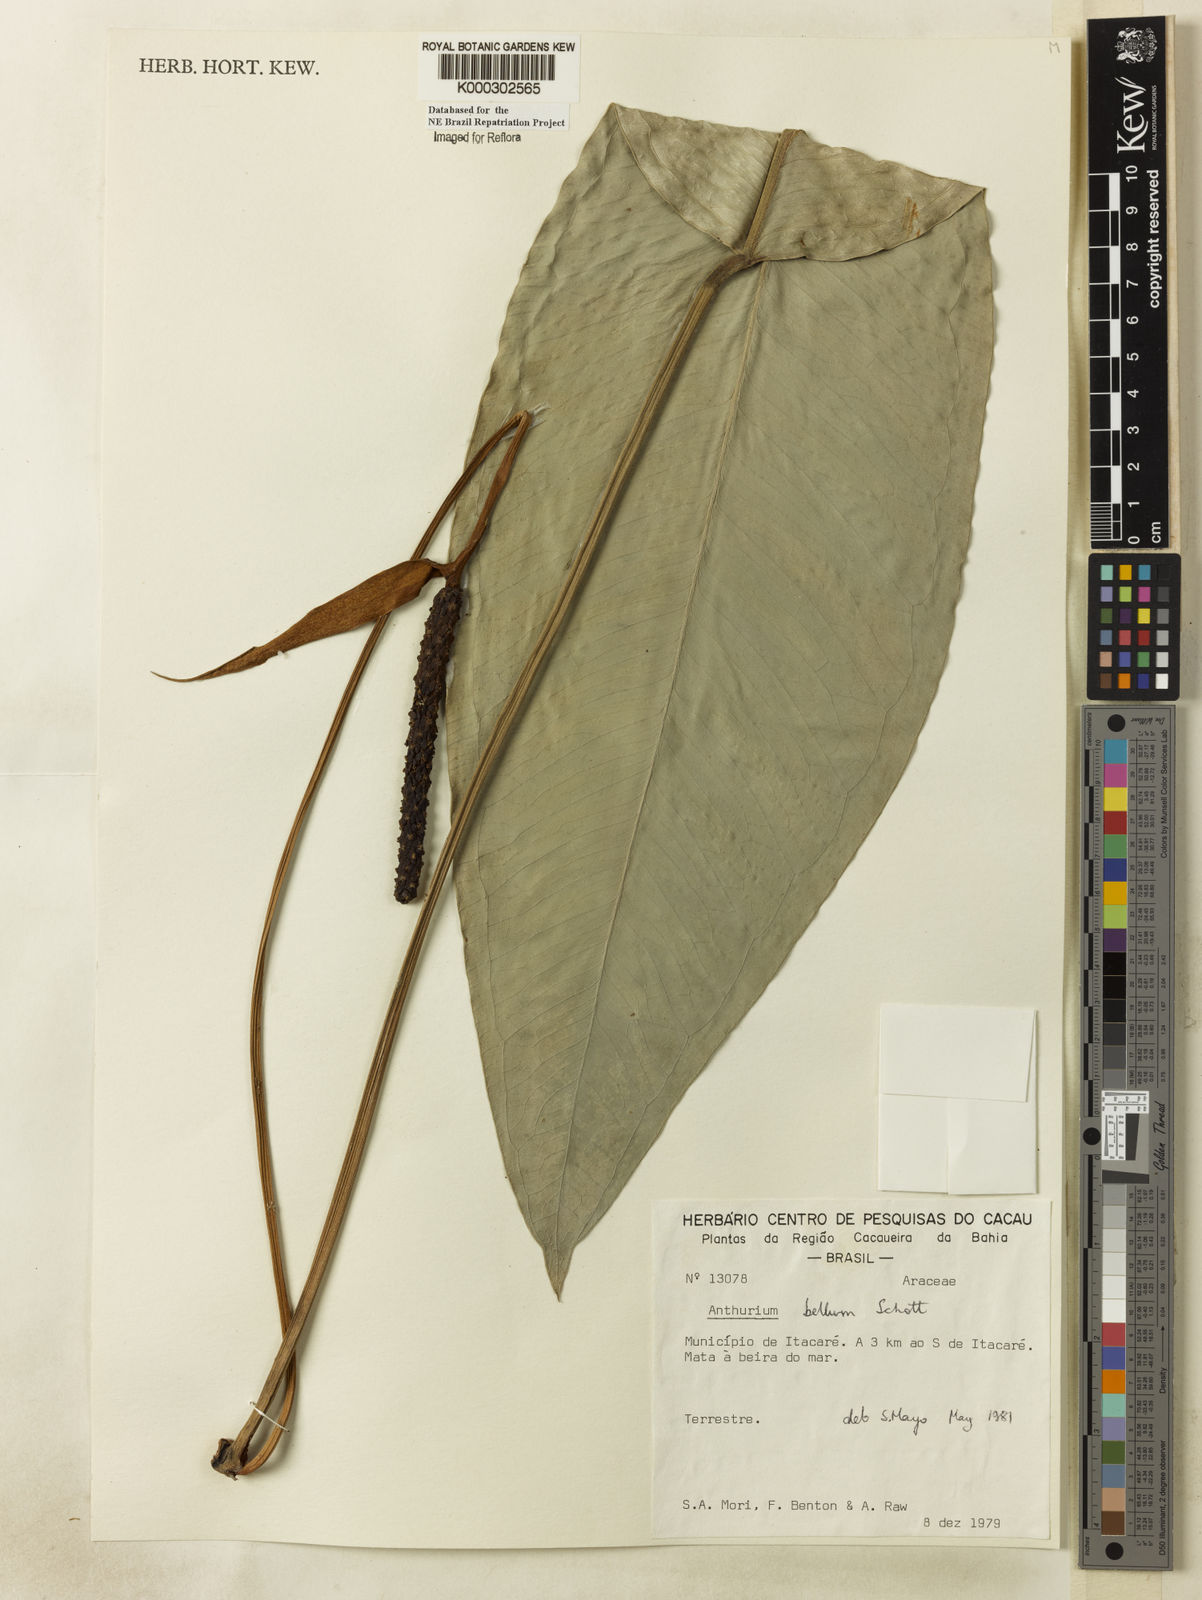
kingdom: Plantae
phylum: Tracheophyta
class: Liliopsida
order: Alismatales
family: Araceae
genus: Anthurium
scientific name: Anthurium bellum
